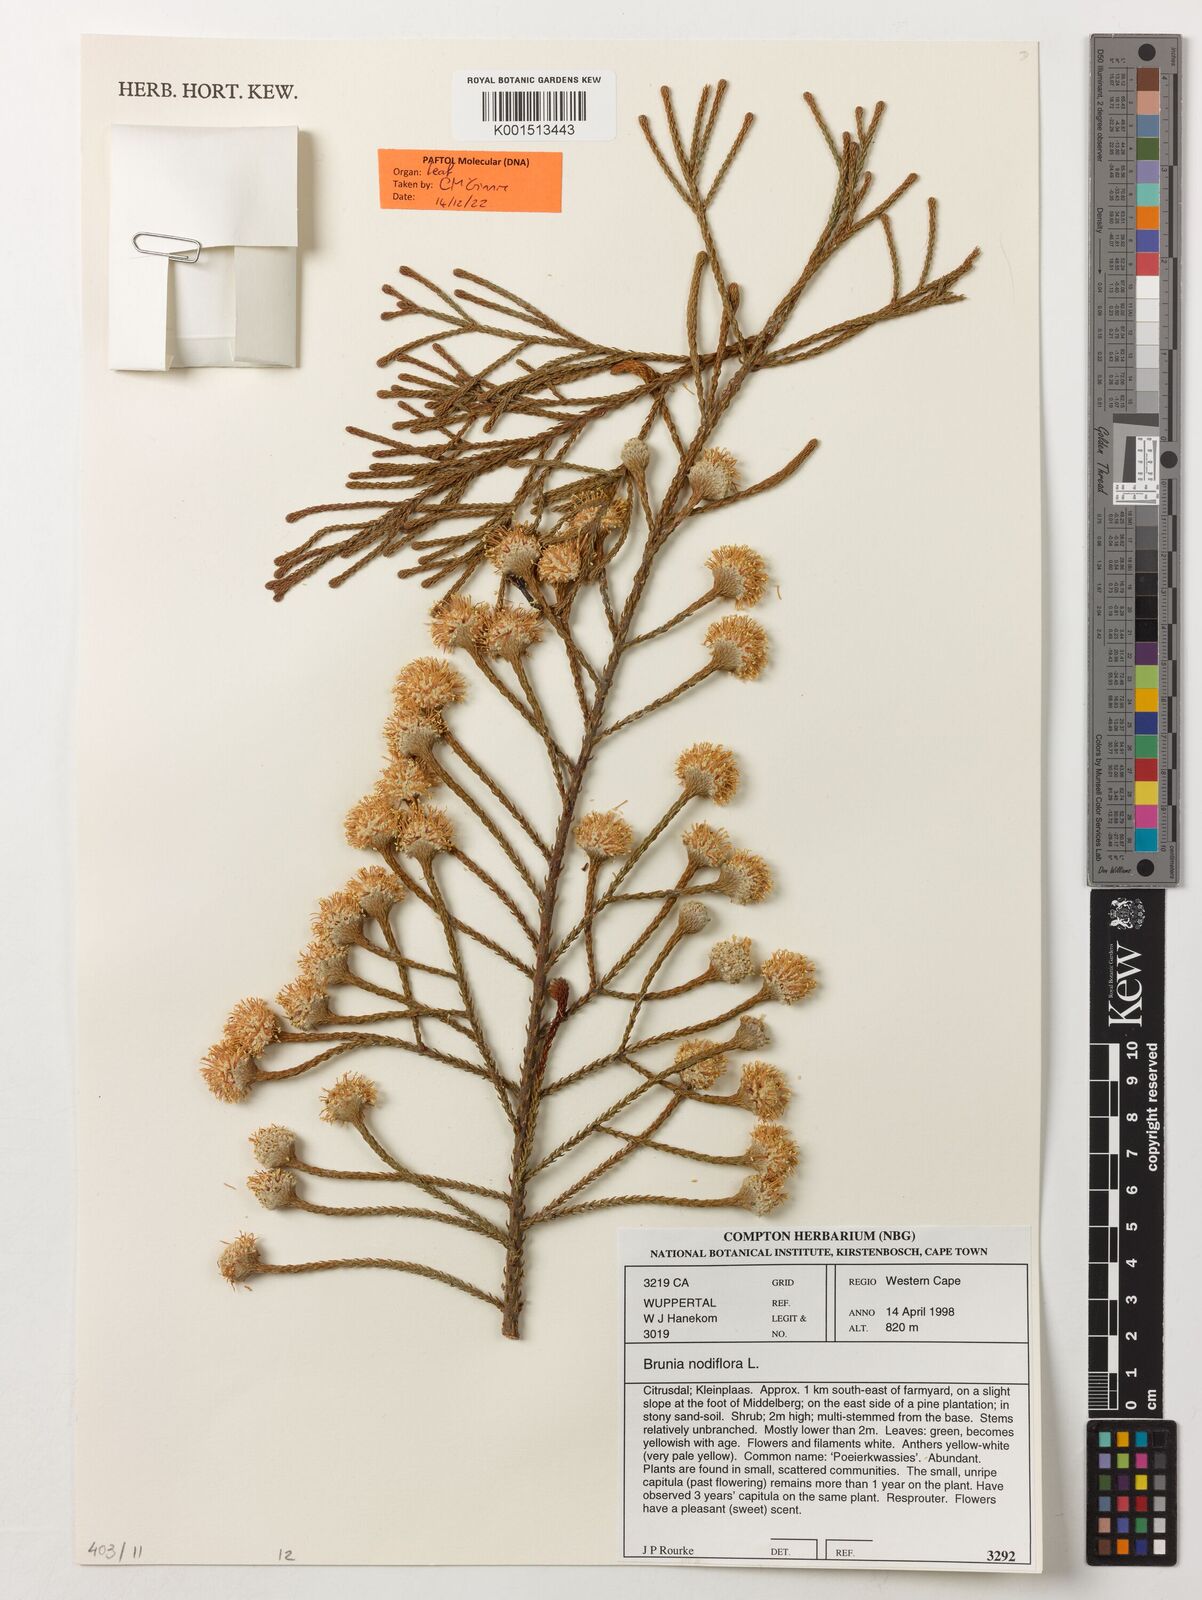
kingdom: Plantae
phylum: Tracheophyta
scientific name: Tracheophyta
